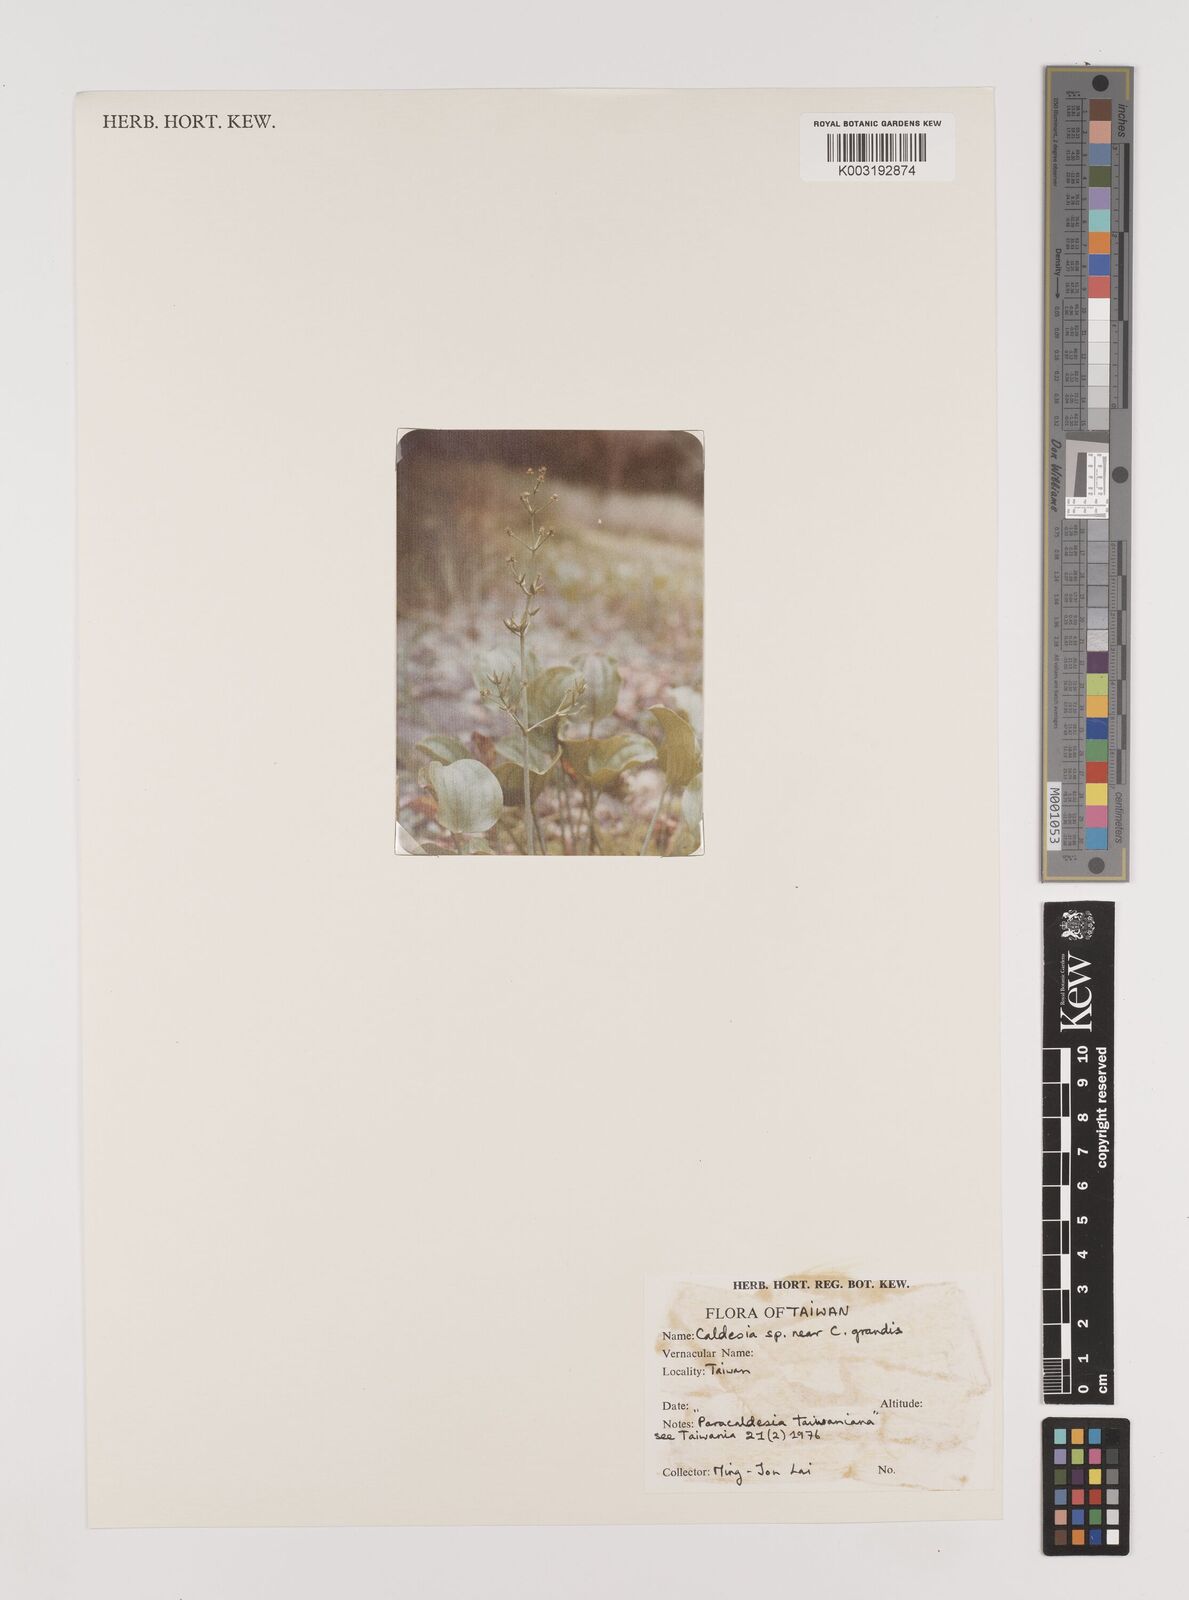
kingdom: Plantae
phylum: Tracheophyta
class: Liliopsida
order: Alismatales
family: Alismataceae
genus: Caldesia
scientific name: Caldesia
